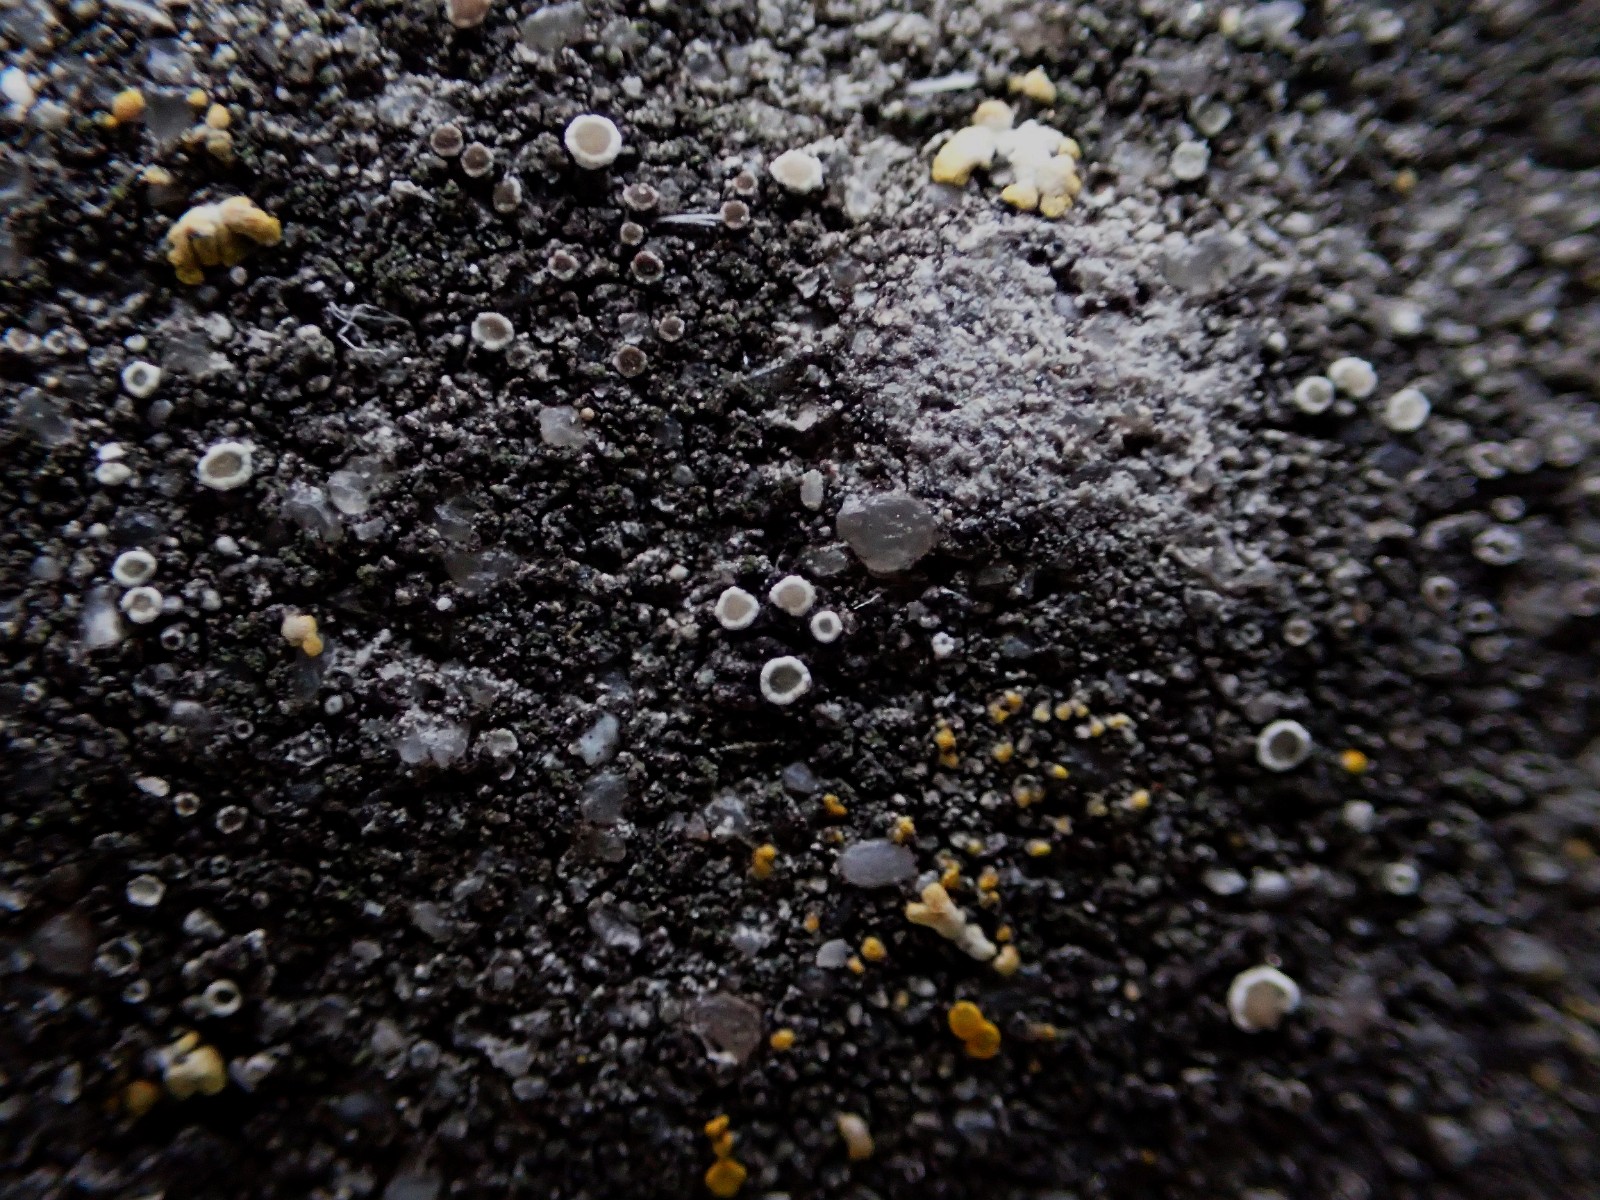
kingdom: Fungi
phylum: Ascomycota
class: Lecanoromycetes
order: Lecanorales
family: Lecanoraceae
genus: Polyozosia
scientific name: Polyozosia dispersa
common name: spredt kantskivelav
